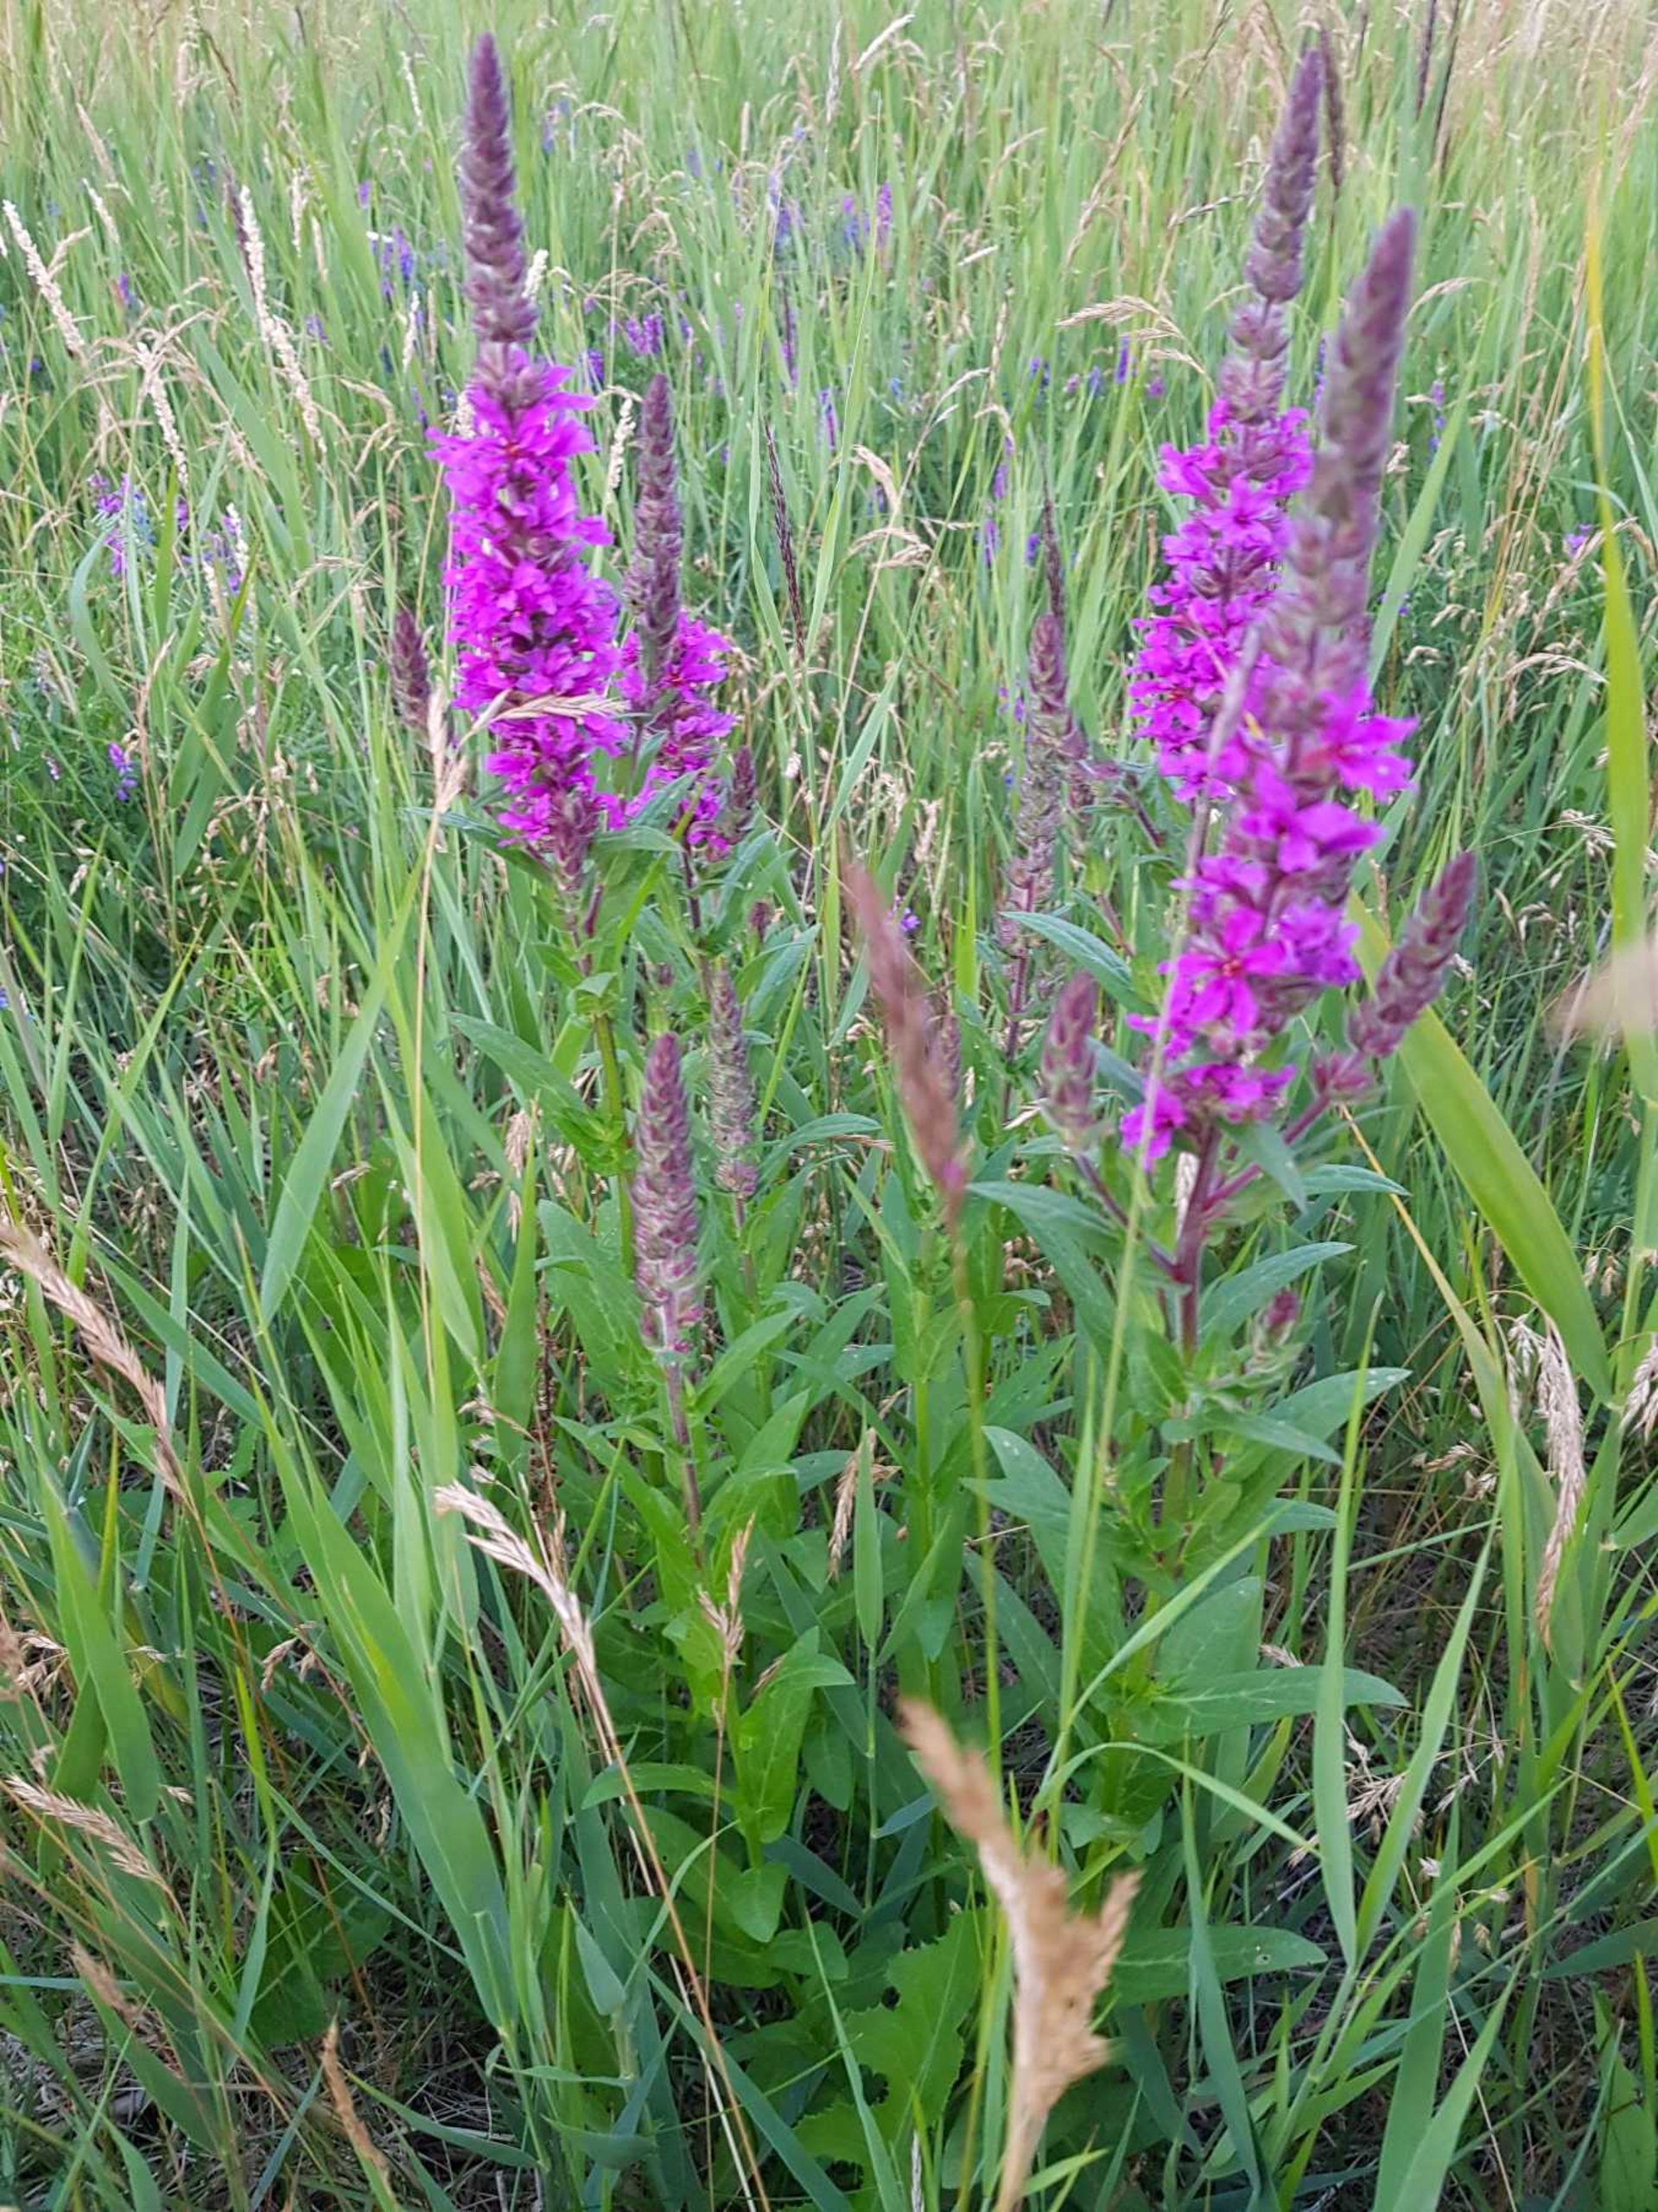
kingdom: Plantae
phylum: Tracheophyta
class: Magnoliopsida
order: Myrtales
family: Lythraceae
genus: Lythrum
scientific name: Lythrum salicaria
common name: Kattehale
